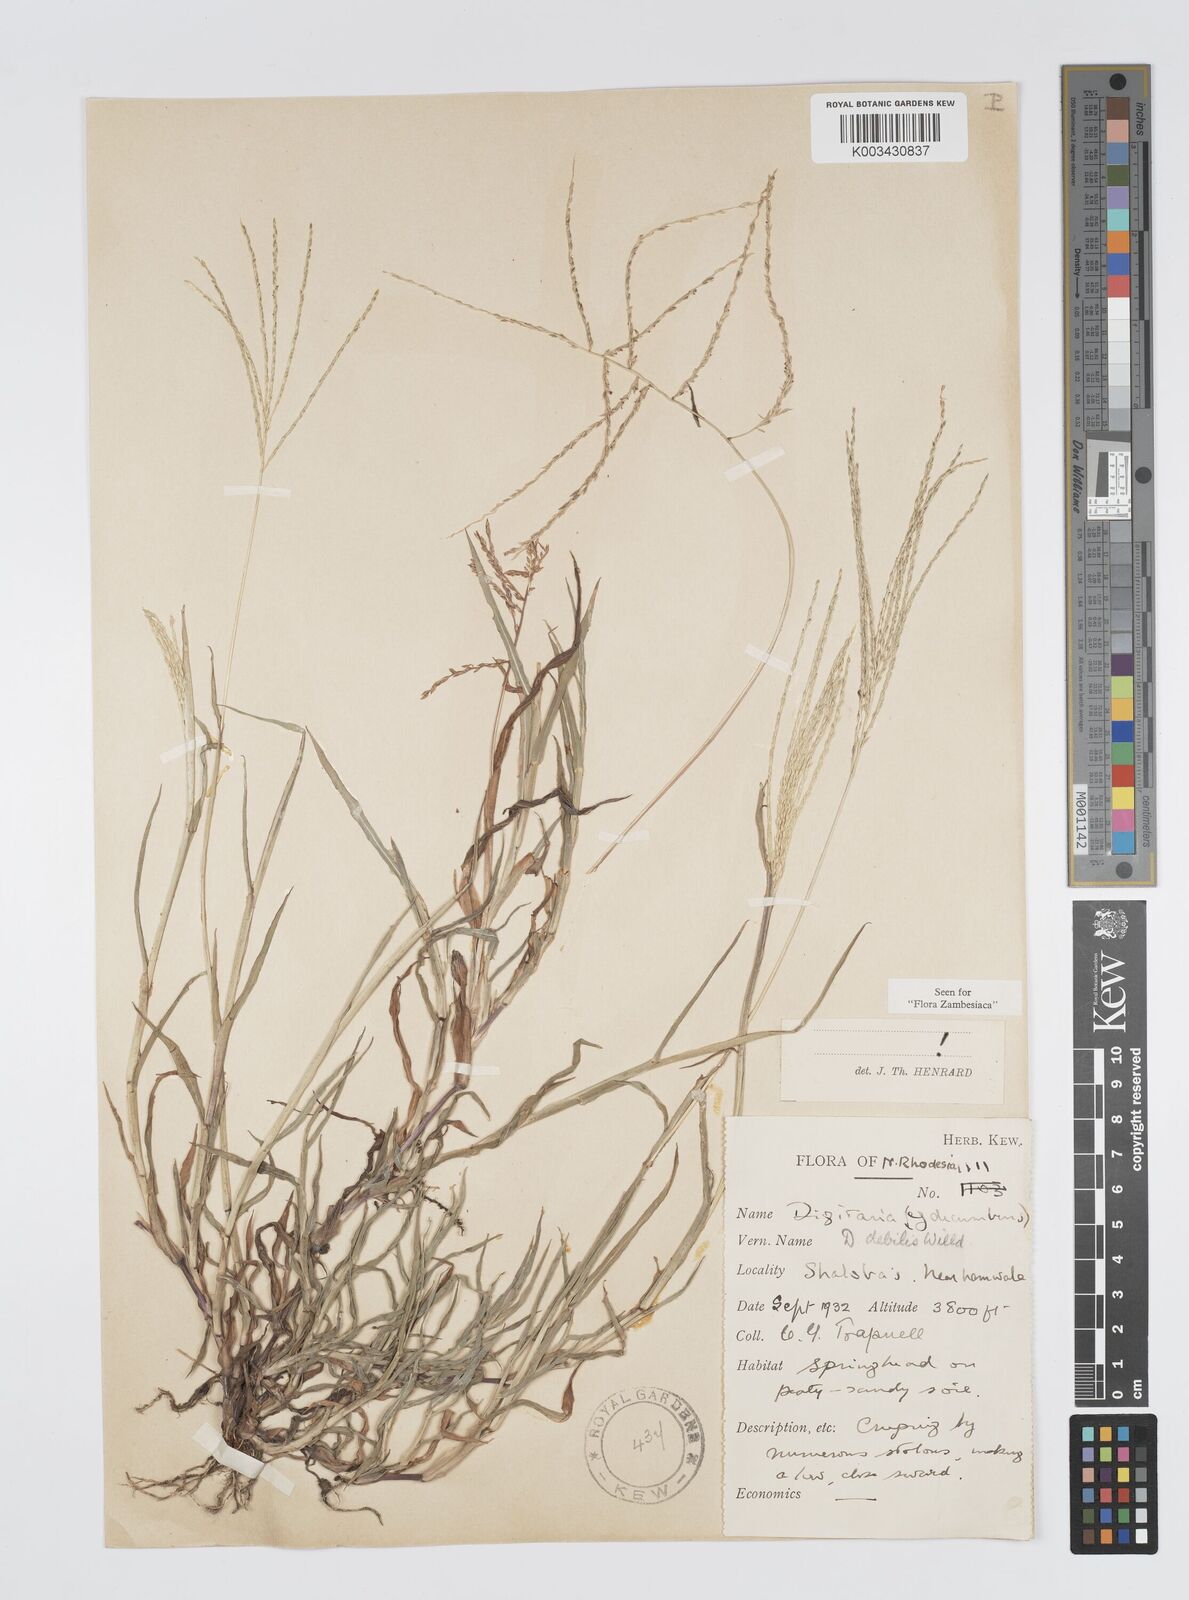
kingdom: Plantae
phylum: Tracheophyta
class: Liliopsida
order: Poales
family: Poaceae
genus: Digitaria
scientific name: Digitaria debilis
